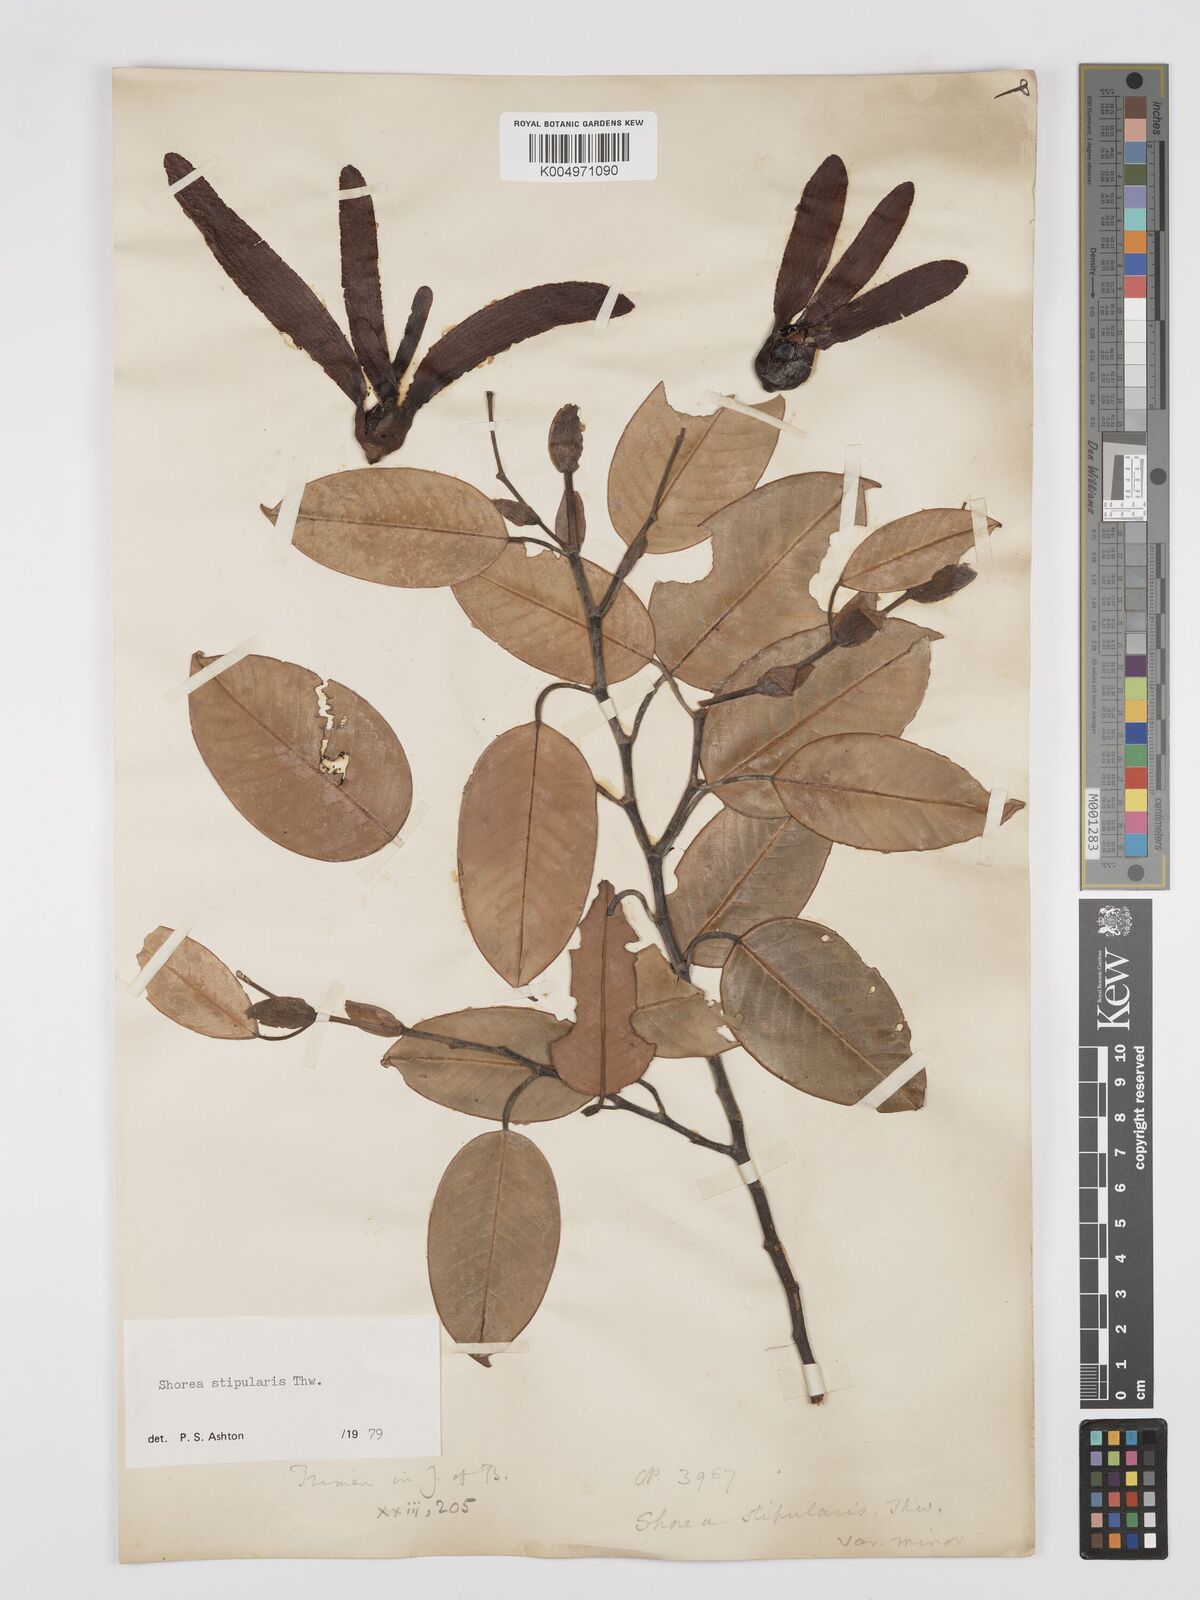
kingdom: Plantae
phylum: Tracheophyta
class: Magnoliopsida
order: Malvales
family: Dipterocarpaceae
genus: Anthoshorea
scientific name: Anthoshorea stipularis
